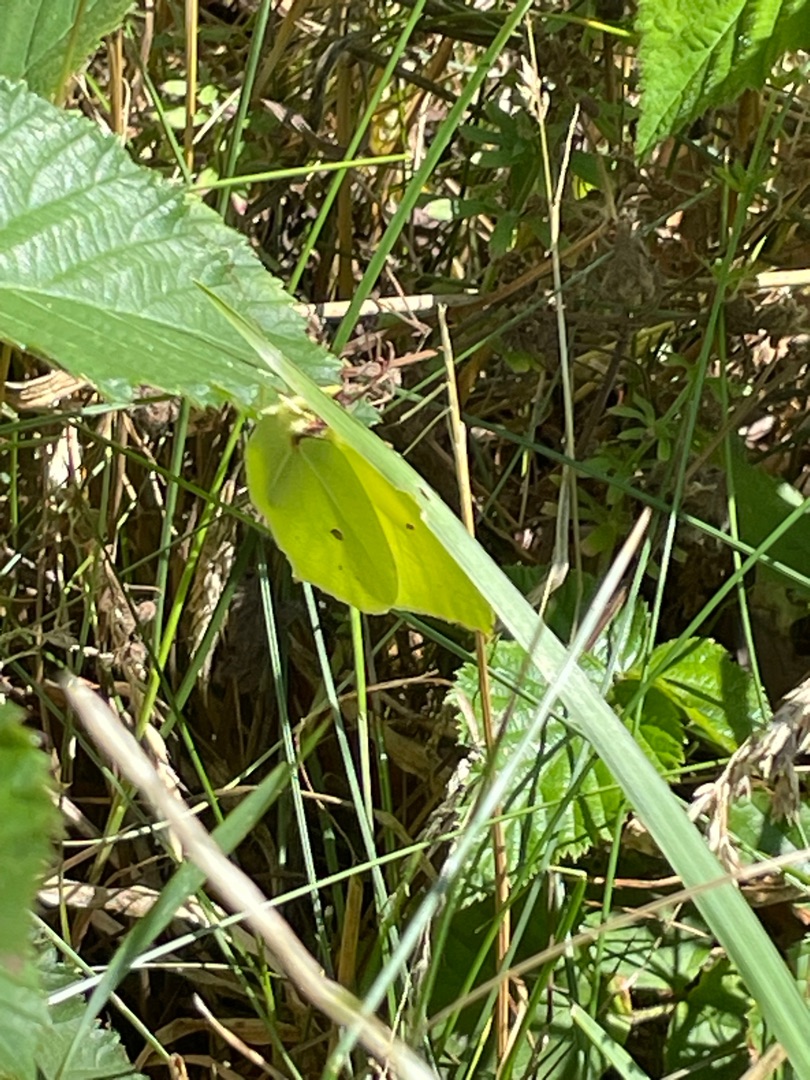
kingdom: Animalia
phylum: Arthropoda
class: Insecta
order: Lepidoptera
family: Pieridae
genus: Gonepteryx
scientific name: Gonepteryx rhamni
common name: Citronsommerfugl
